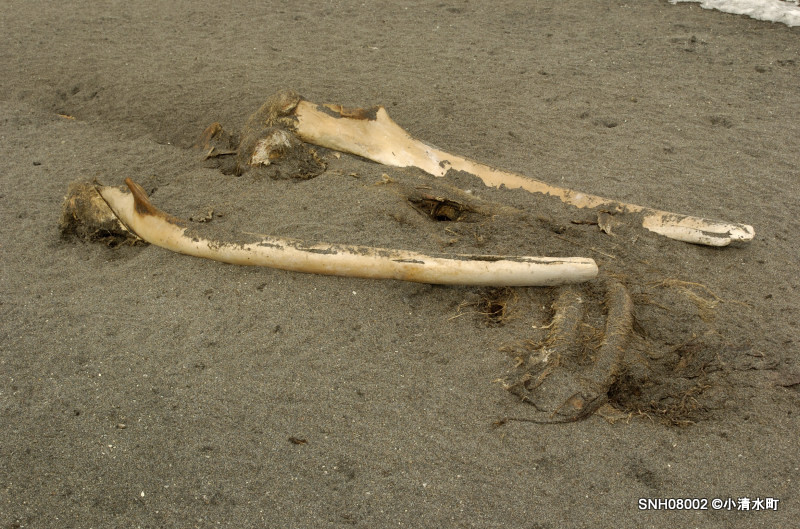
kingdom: Animalia
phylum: Chordata
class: Mammalia
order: Cetacea
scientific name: Cetacea
